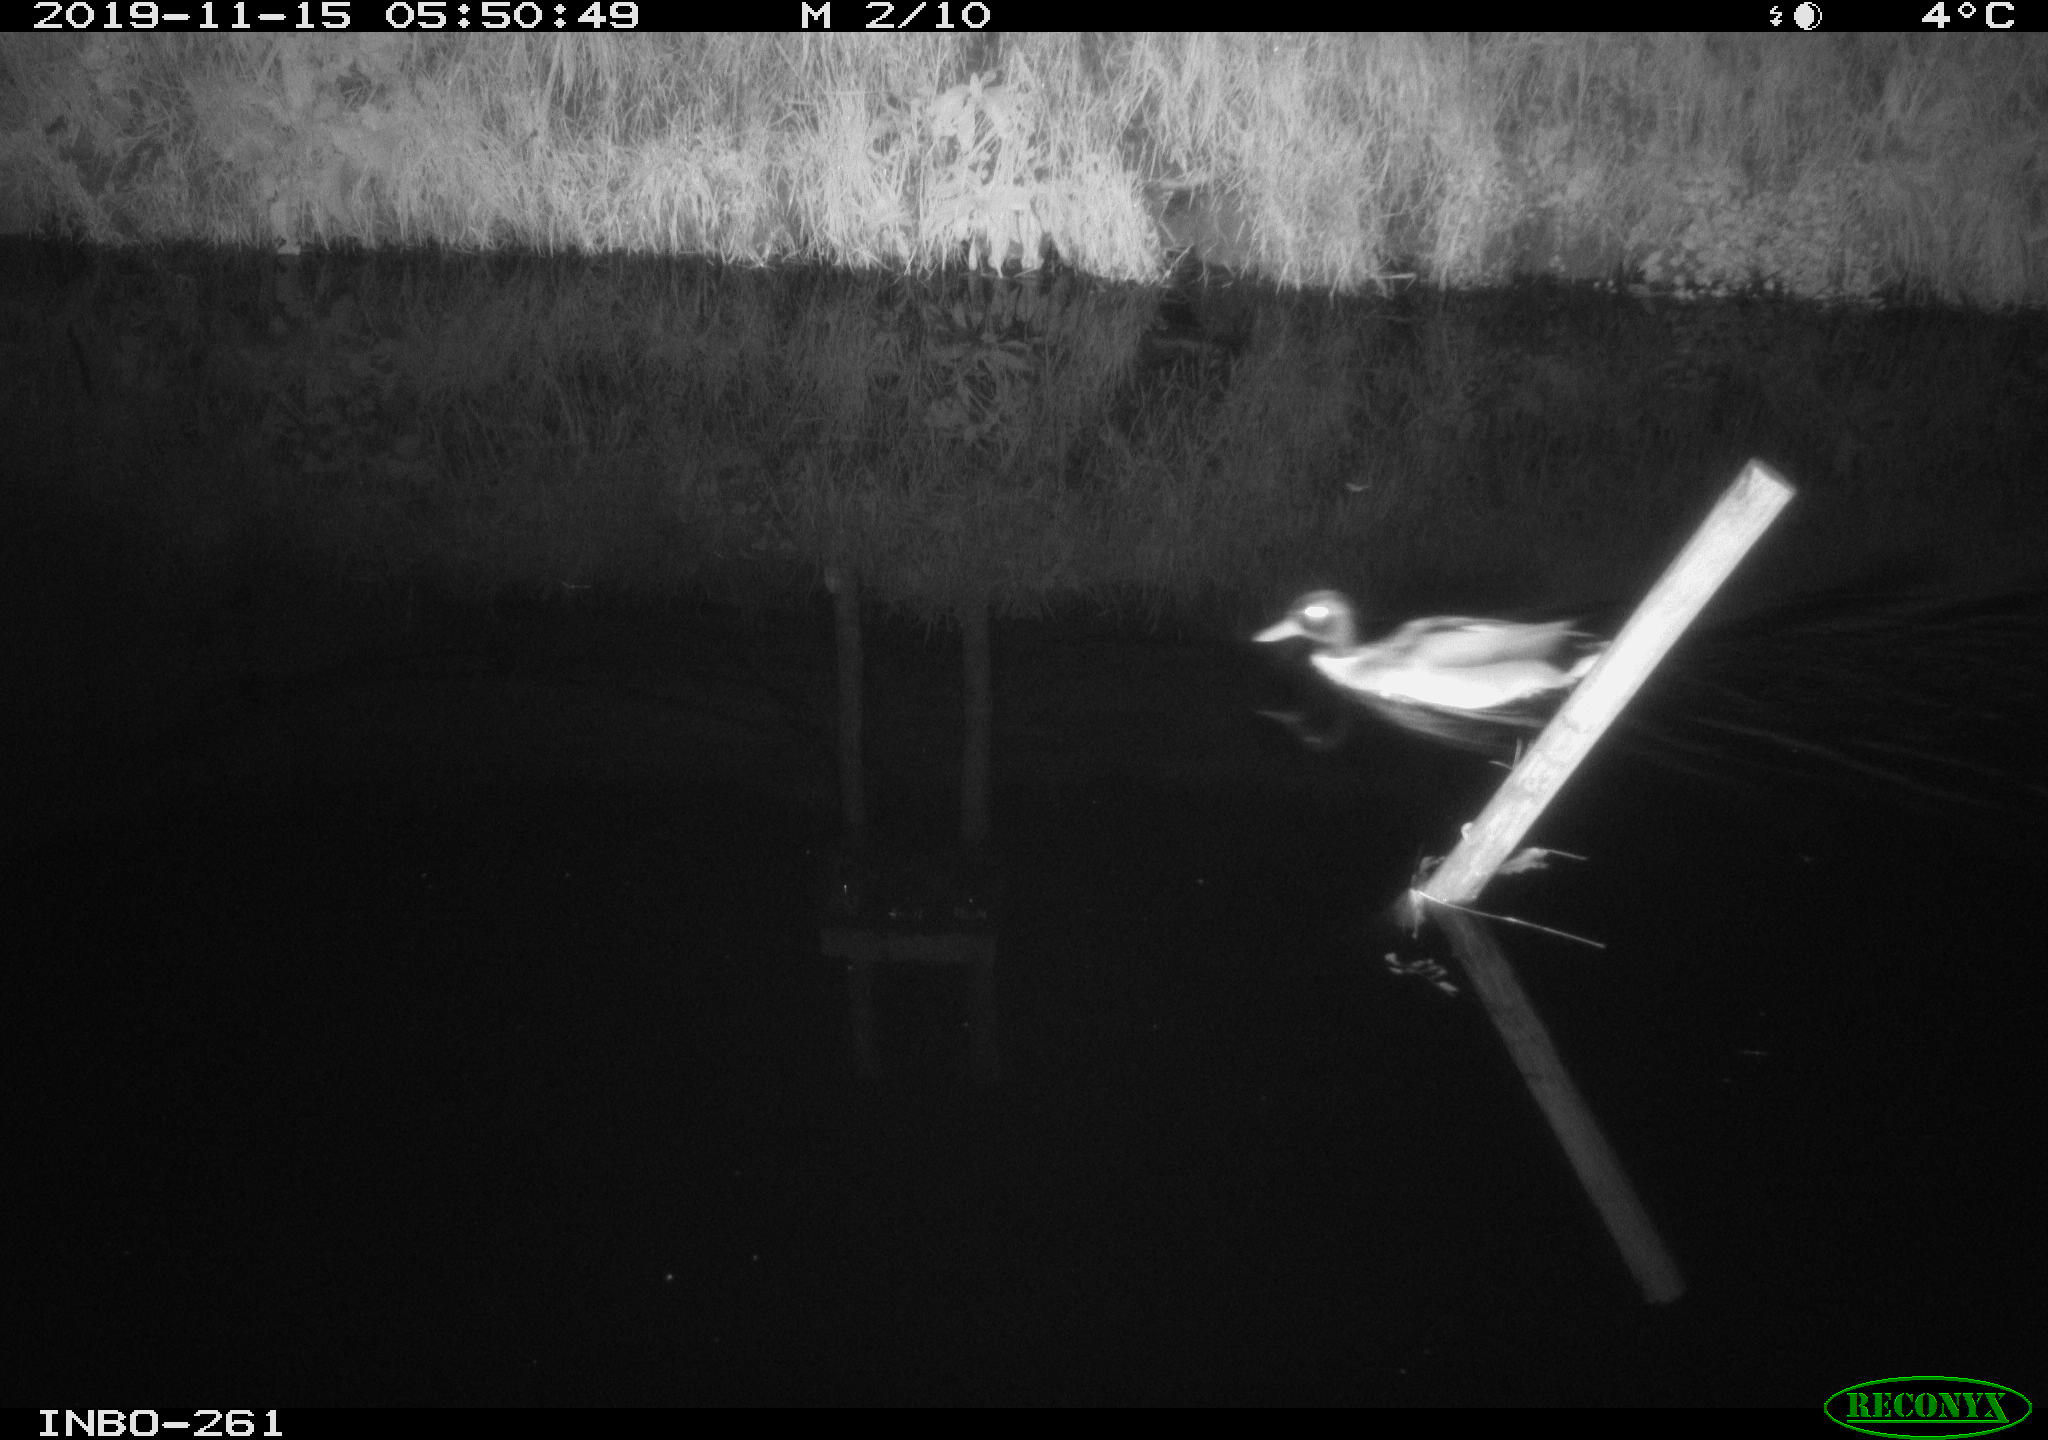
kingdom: Animalia
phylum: Chordata
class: Aves
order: Anseriformes
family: Anatidae
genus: Anas
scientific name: Anas platyrhynchos
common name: Mallard
